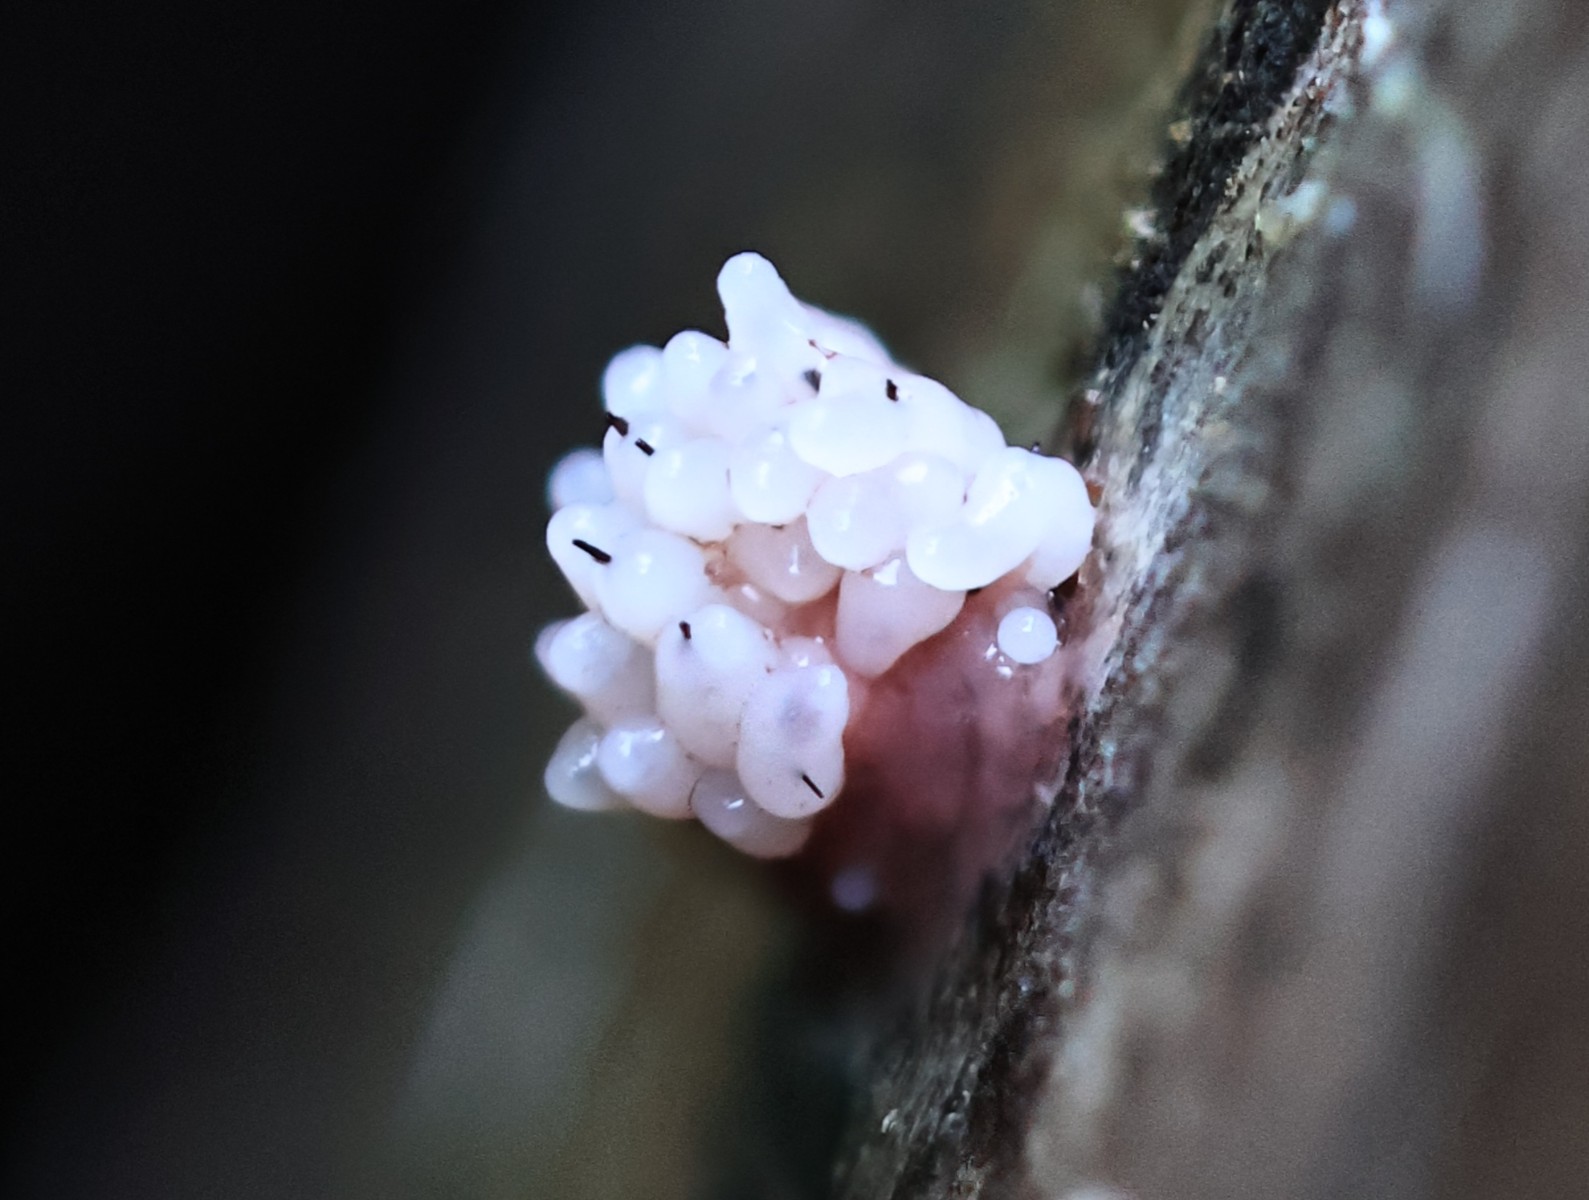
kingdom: Protozoa
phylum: Mycetozoa
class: Myxomycetes
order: Stemonitidales
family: Stemonitidaceae
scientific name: Stemonitidaceae
